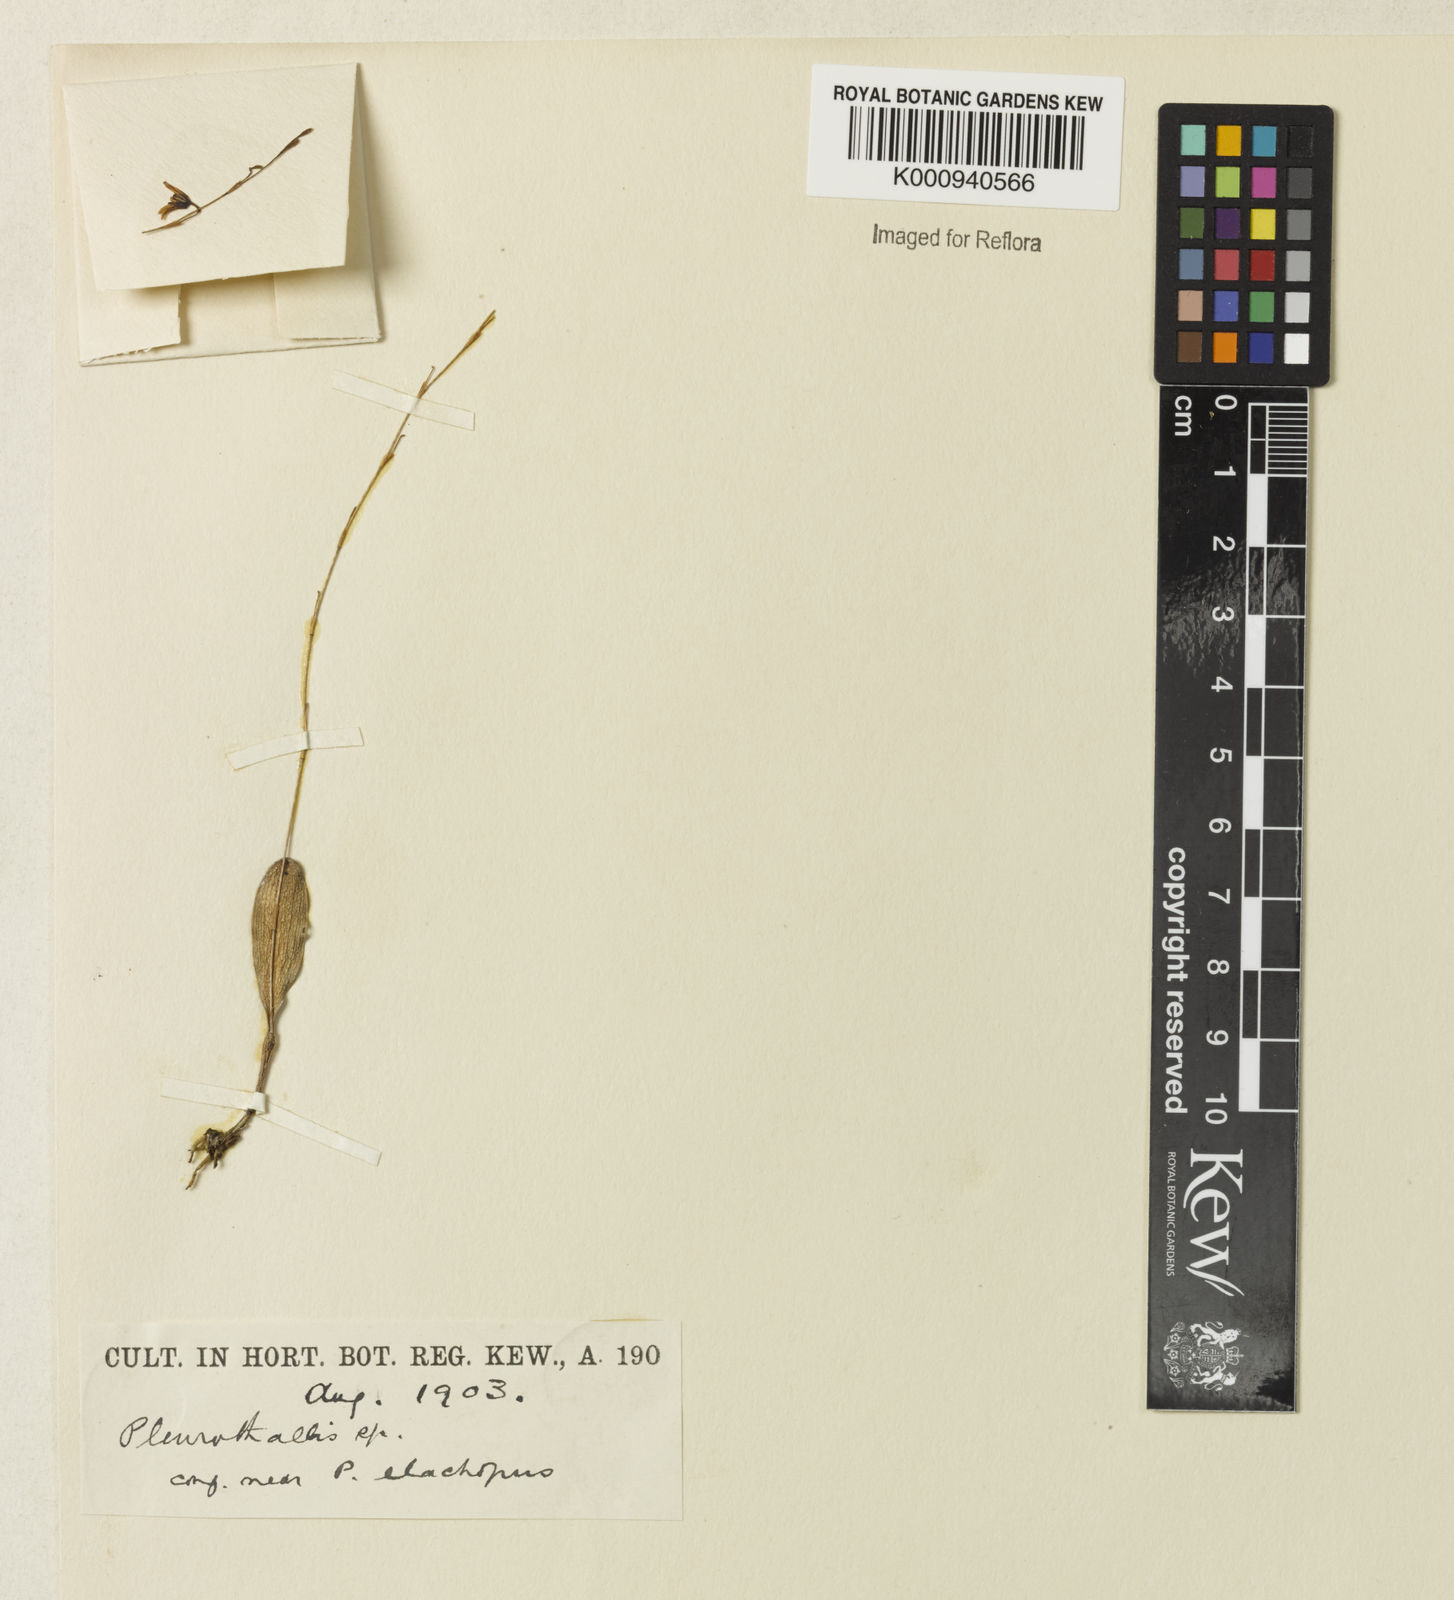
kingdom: Plantae
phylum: Tracheophyta
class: Liliopsida
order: Asparagales
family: Orchidaceae
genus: Stelis
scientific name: Stelis
